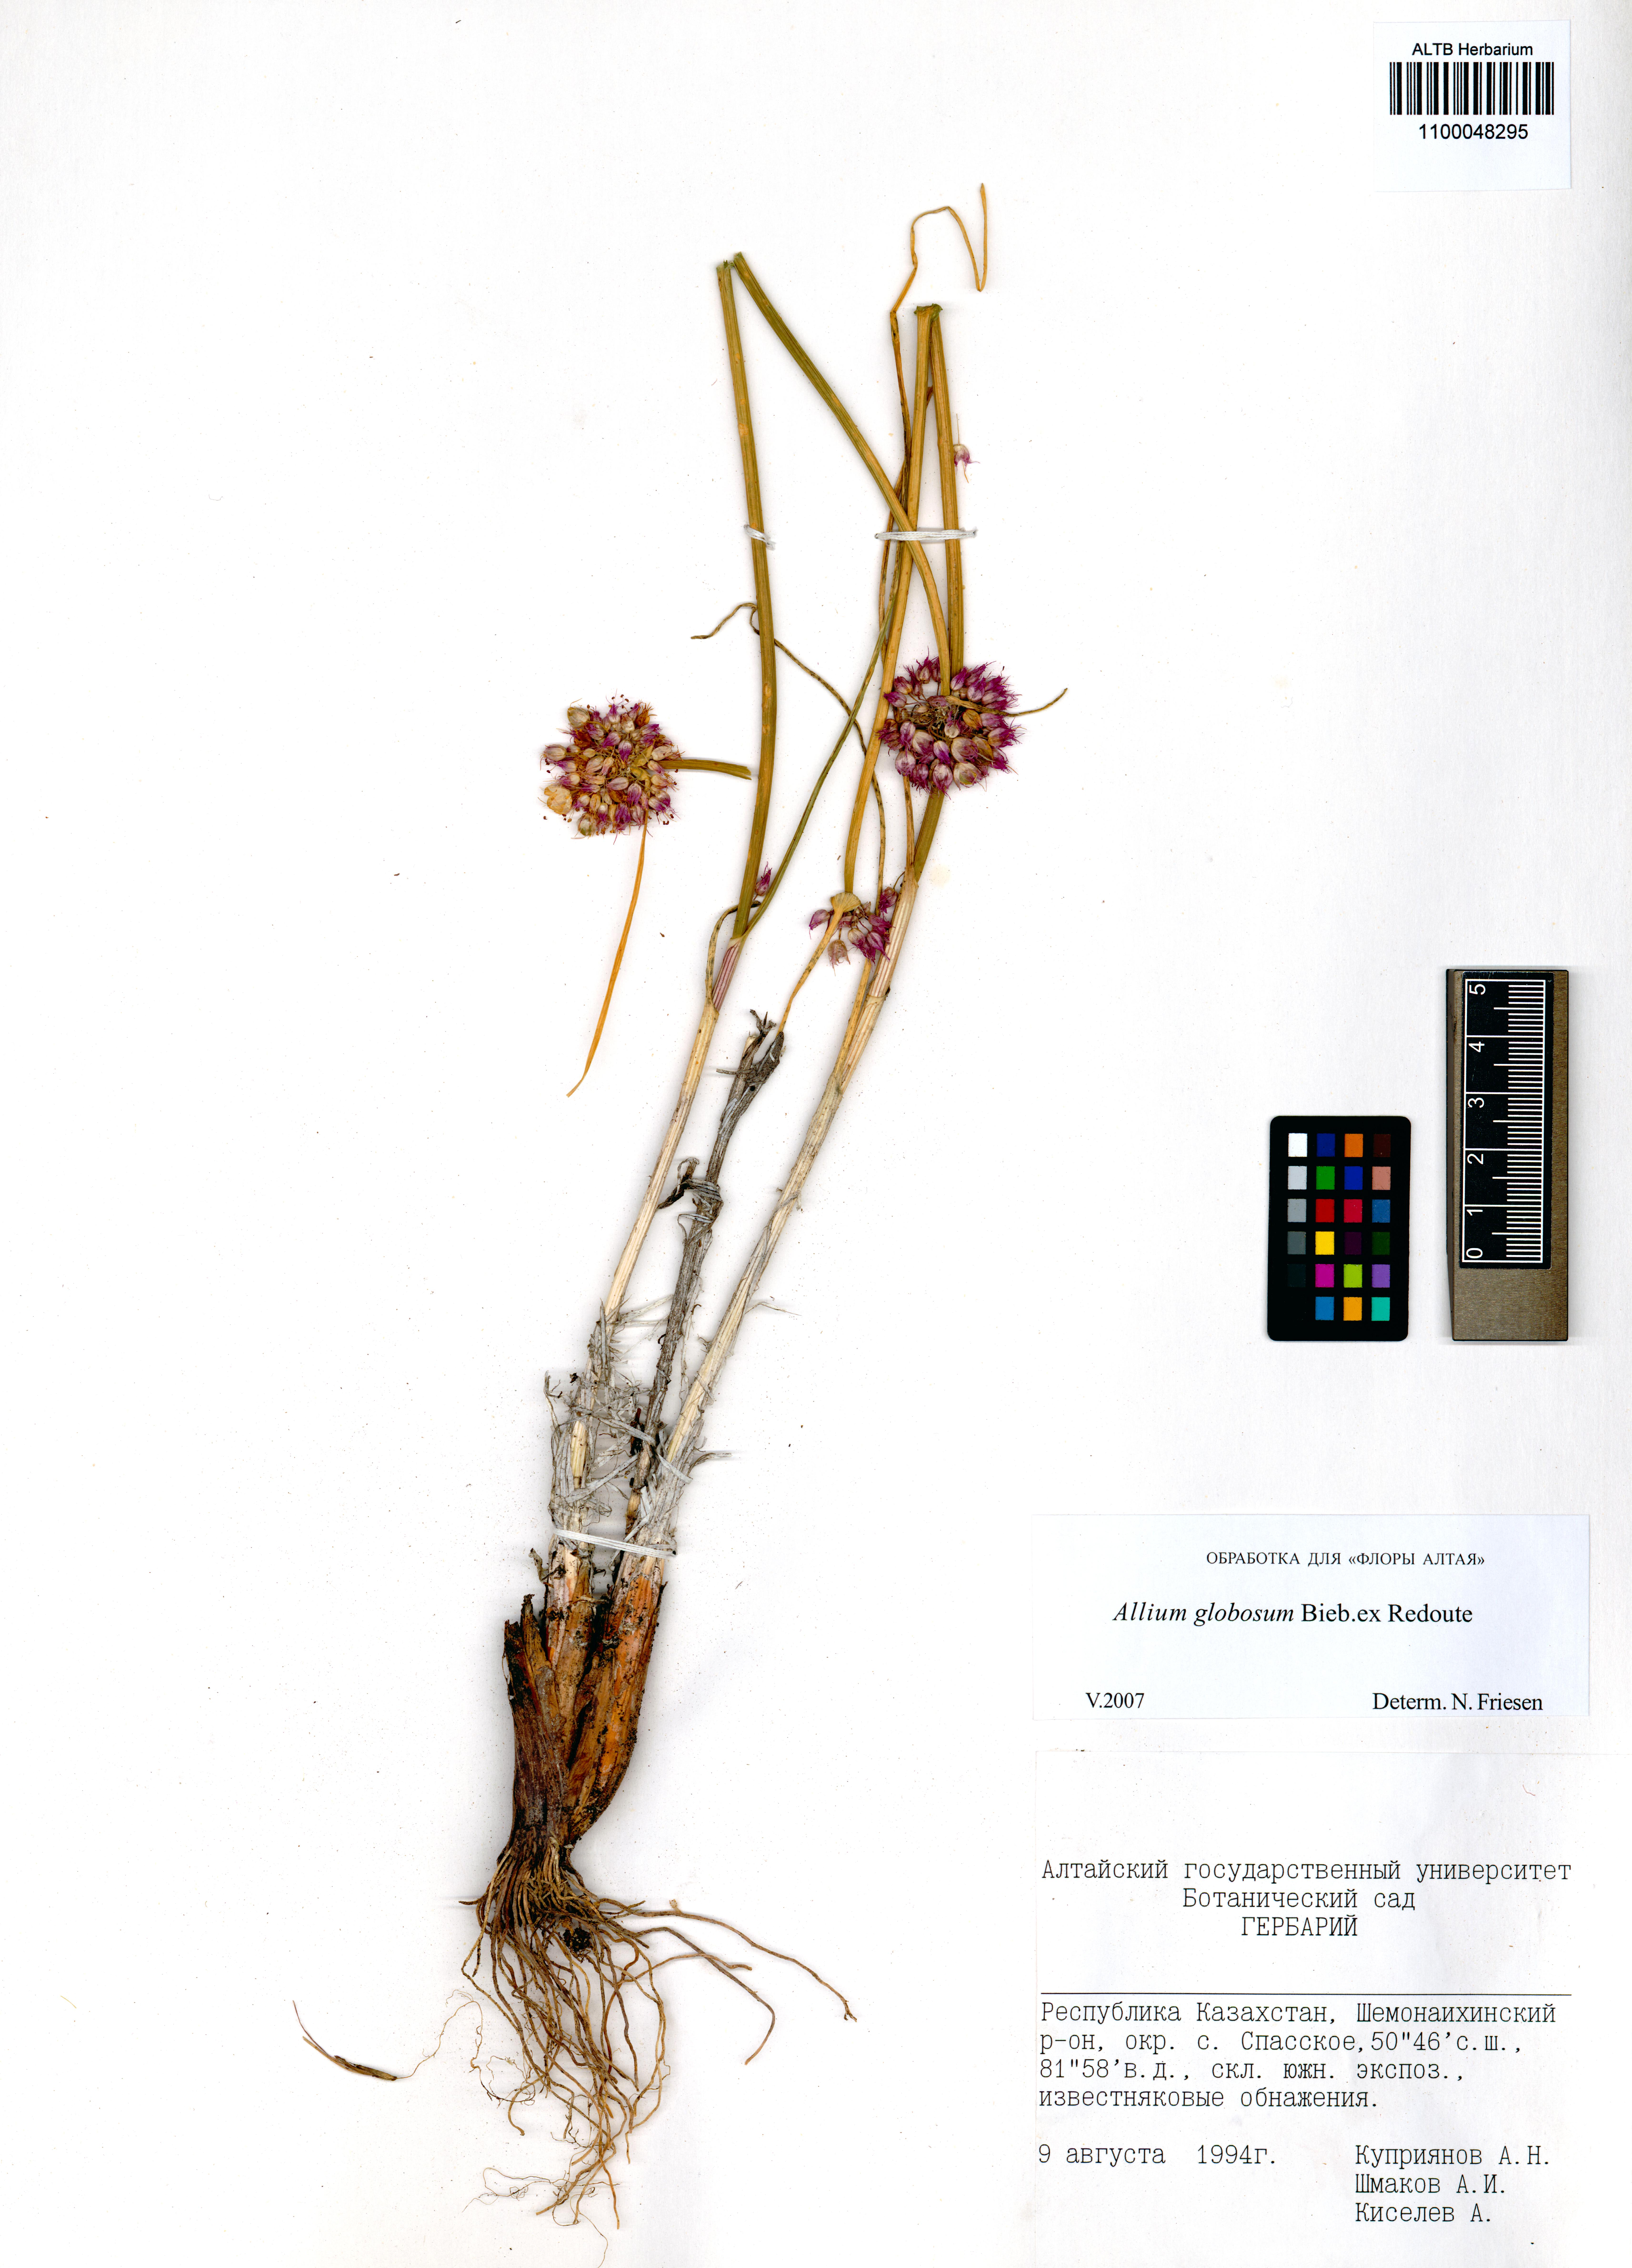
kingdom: Plantae
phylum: Tracheophyta
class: Liliopsida
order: Asparagales
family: Amaryllidaceae
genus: Allium
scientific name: Allium saxatile
